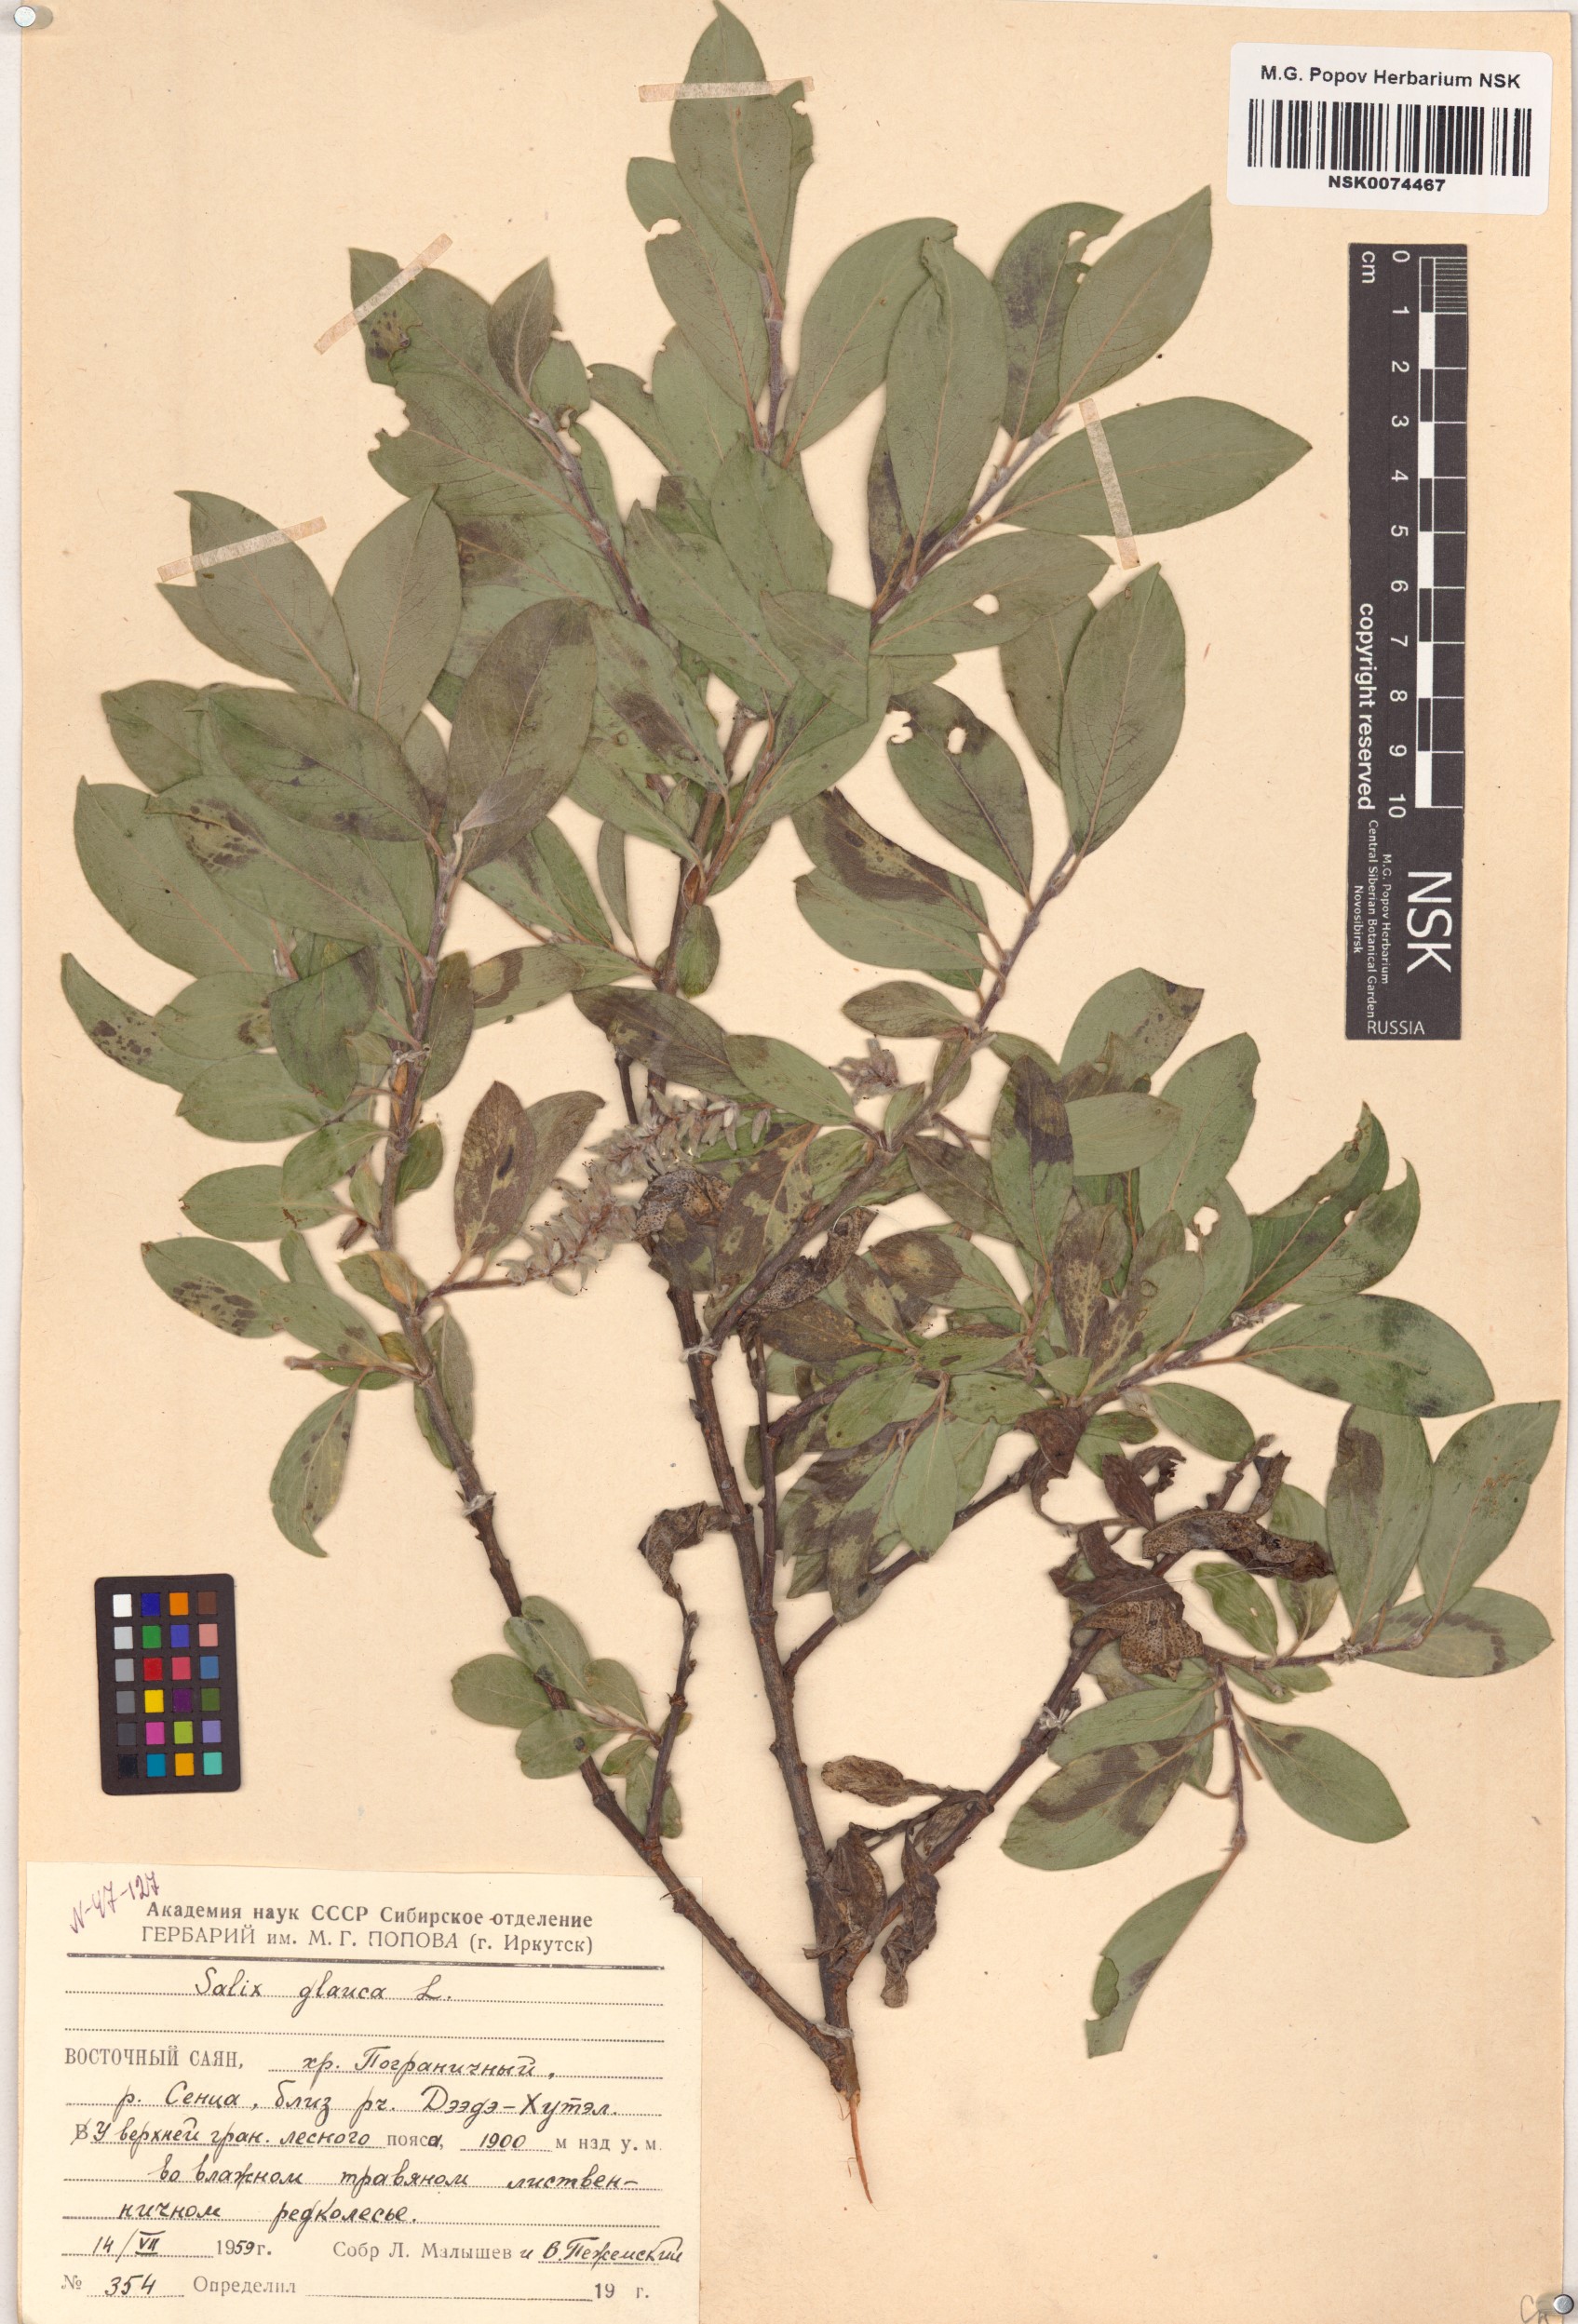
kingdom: Plantae
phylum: Tracheophyta
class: Magnoliopsida
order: Malpighiales
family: Salicaceae
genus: Salix
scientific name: Salix glauca
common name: Glaucous willow
